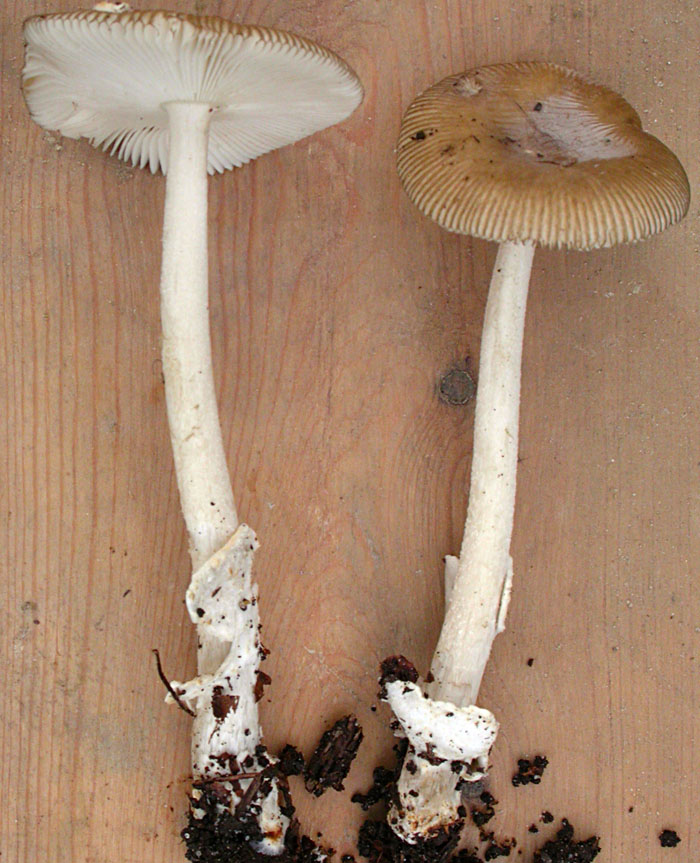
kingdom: Fungi
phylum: Basidiomycota
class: Agaricomycetes
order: Agaricales
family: Amanitaceae
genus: Amanita
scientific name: Amanita olivaceogrisea
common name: olivengrå kam-fluesvamp
